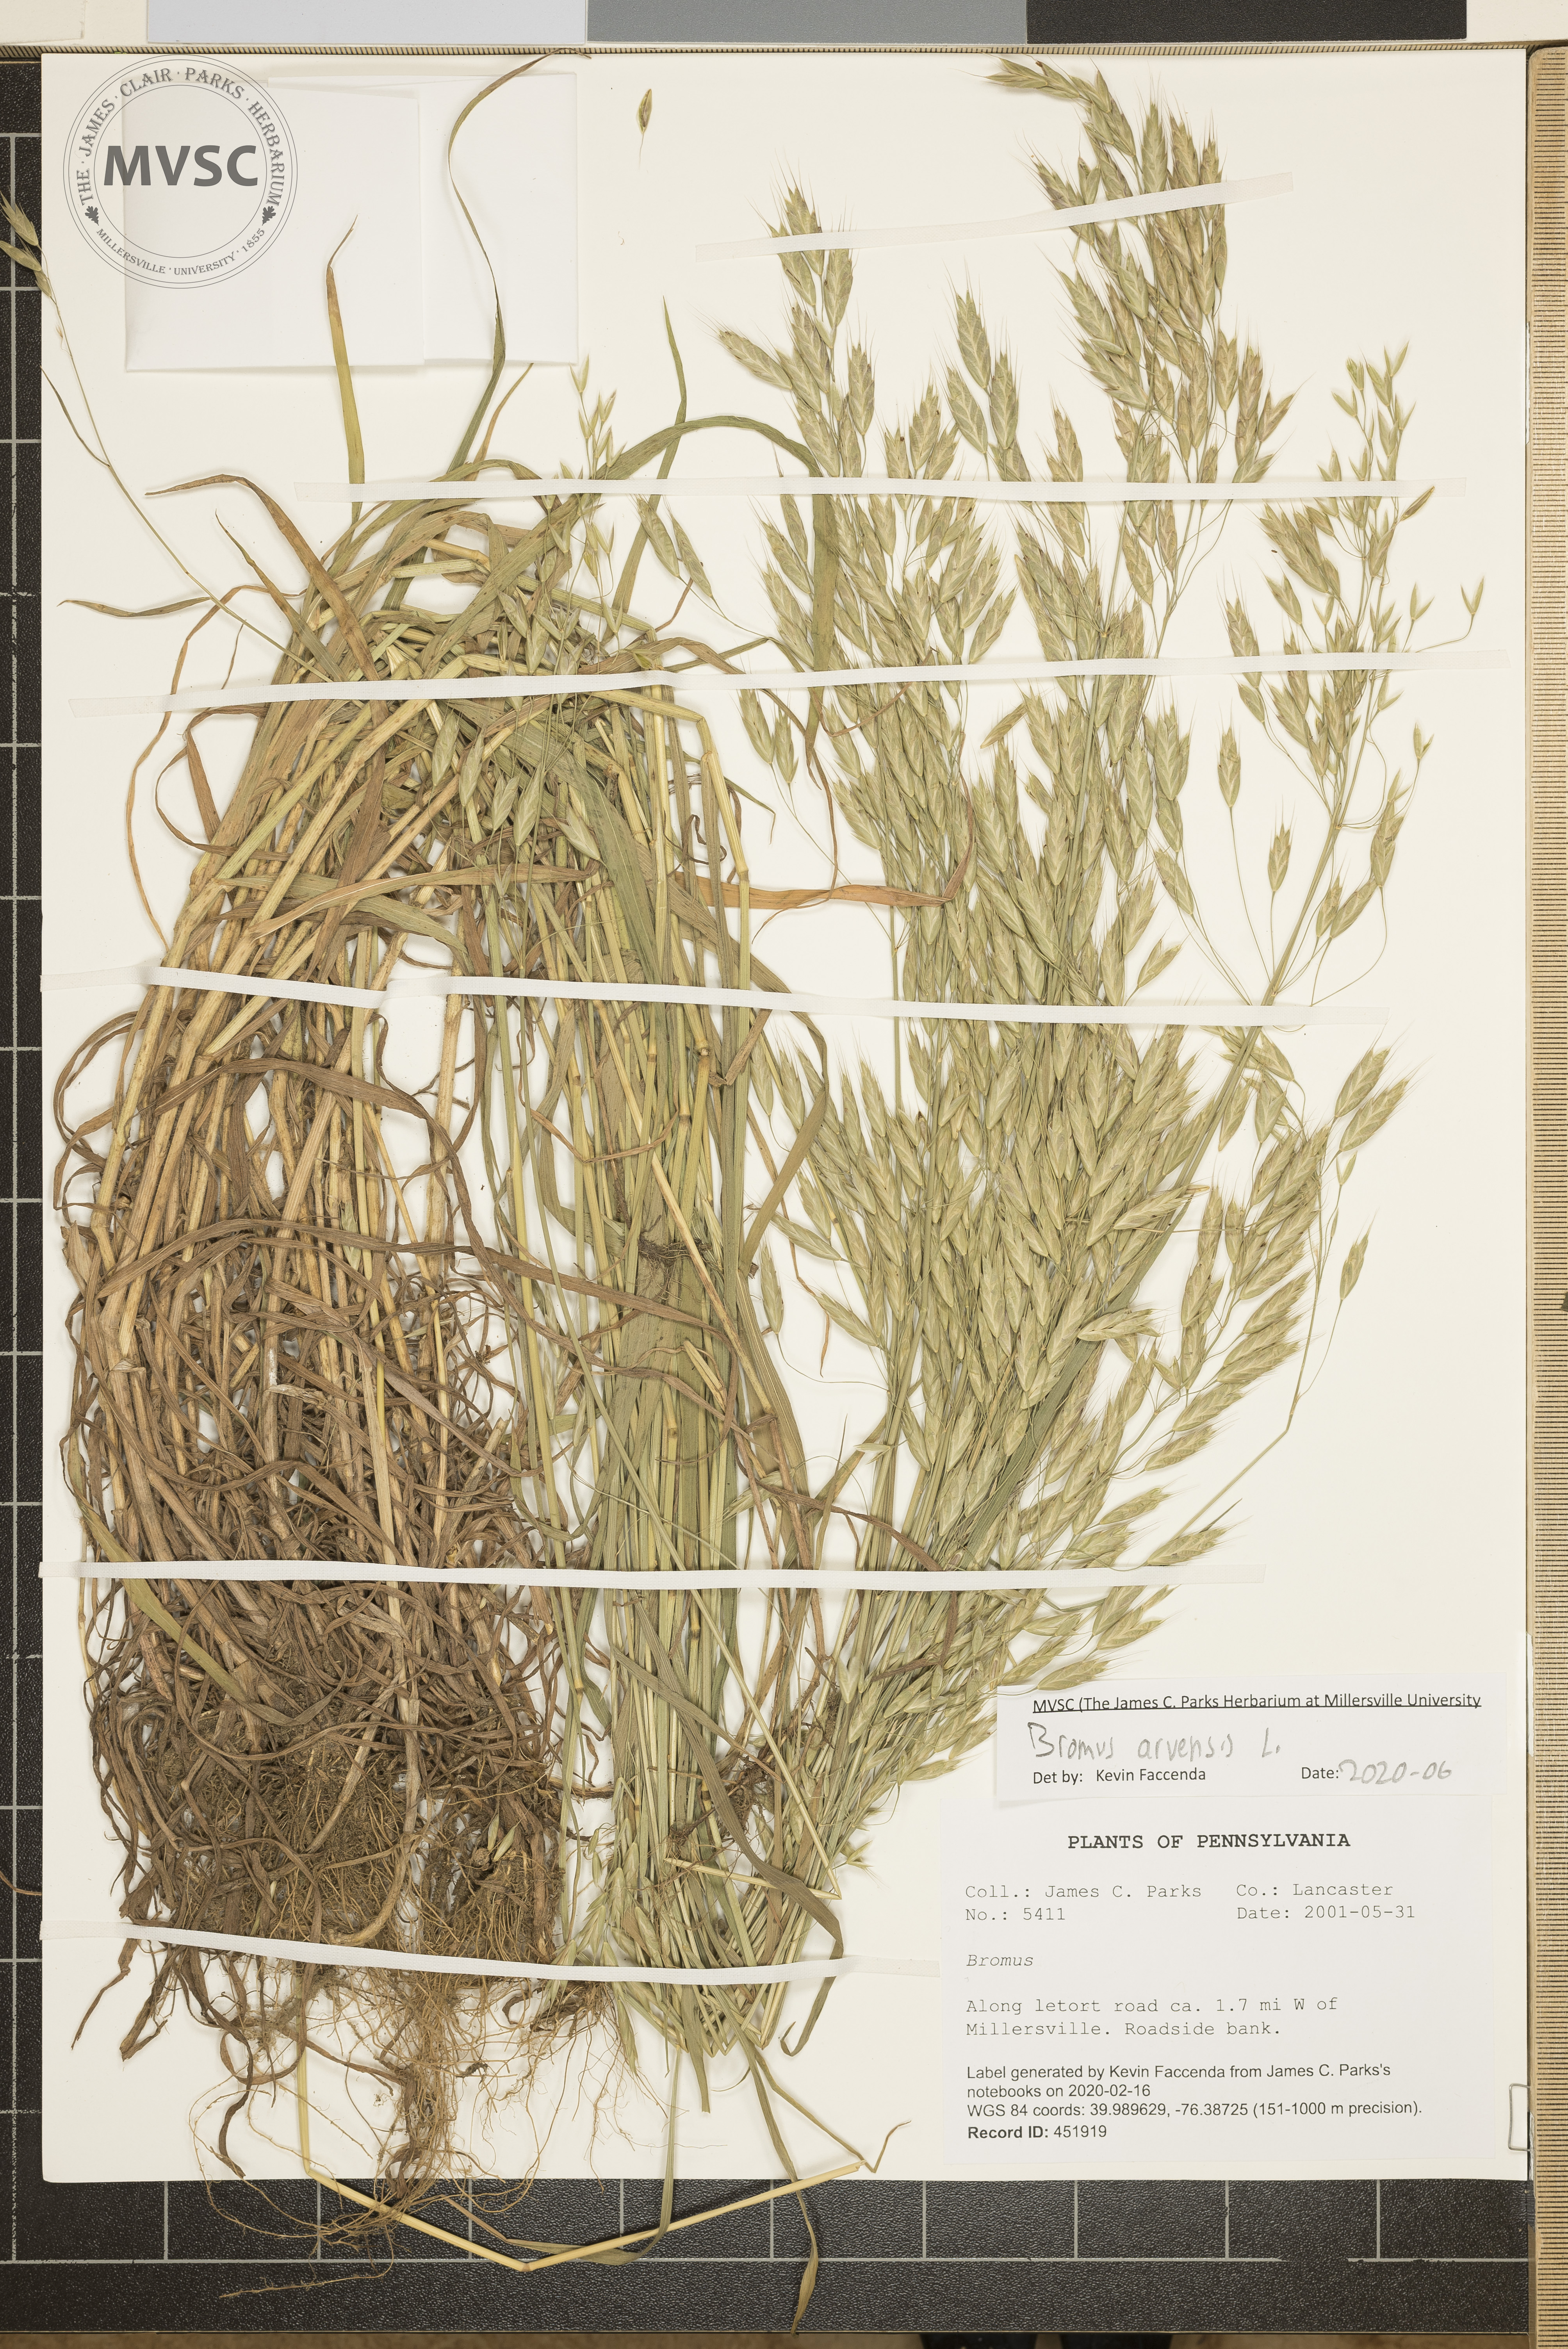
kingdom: Plantae
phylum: Tracheophyta
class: Liliopsida
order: Poales
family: Poaceae
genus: Bromus
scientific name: Bromus arvensis
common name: Field brome
